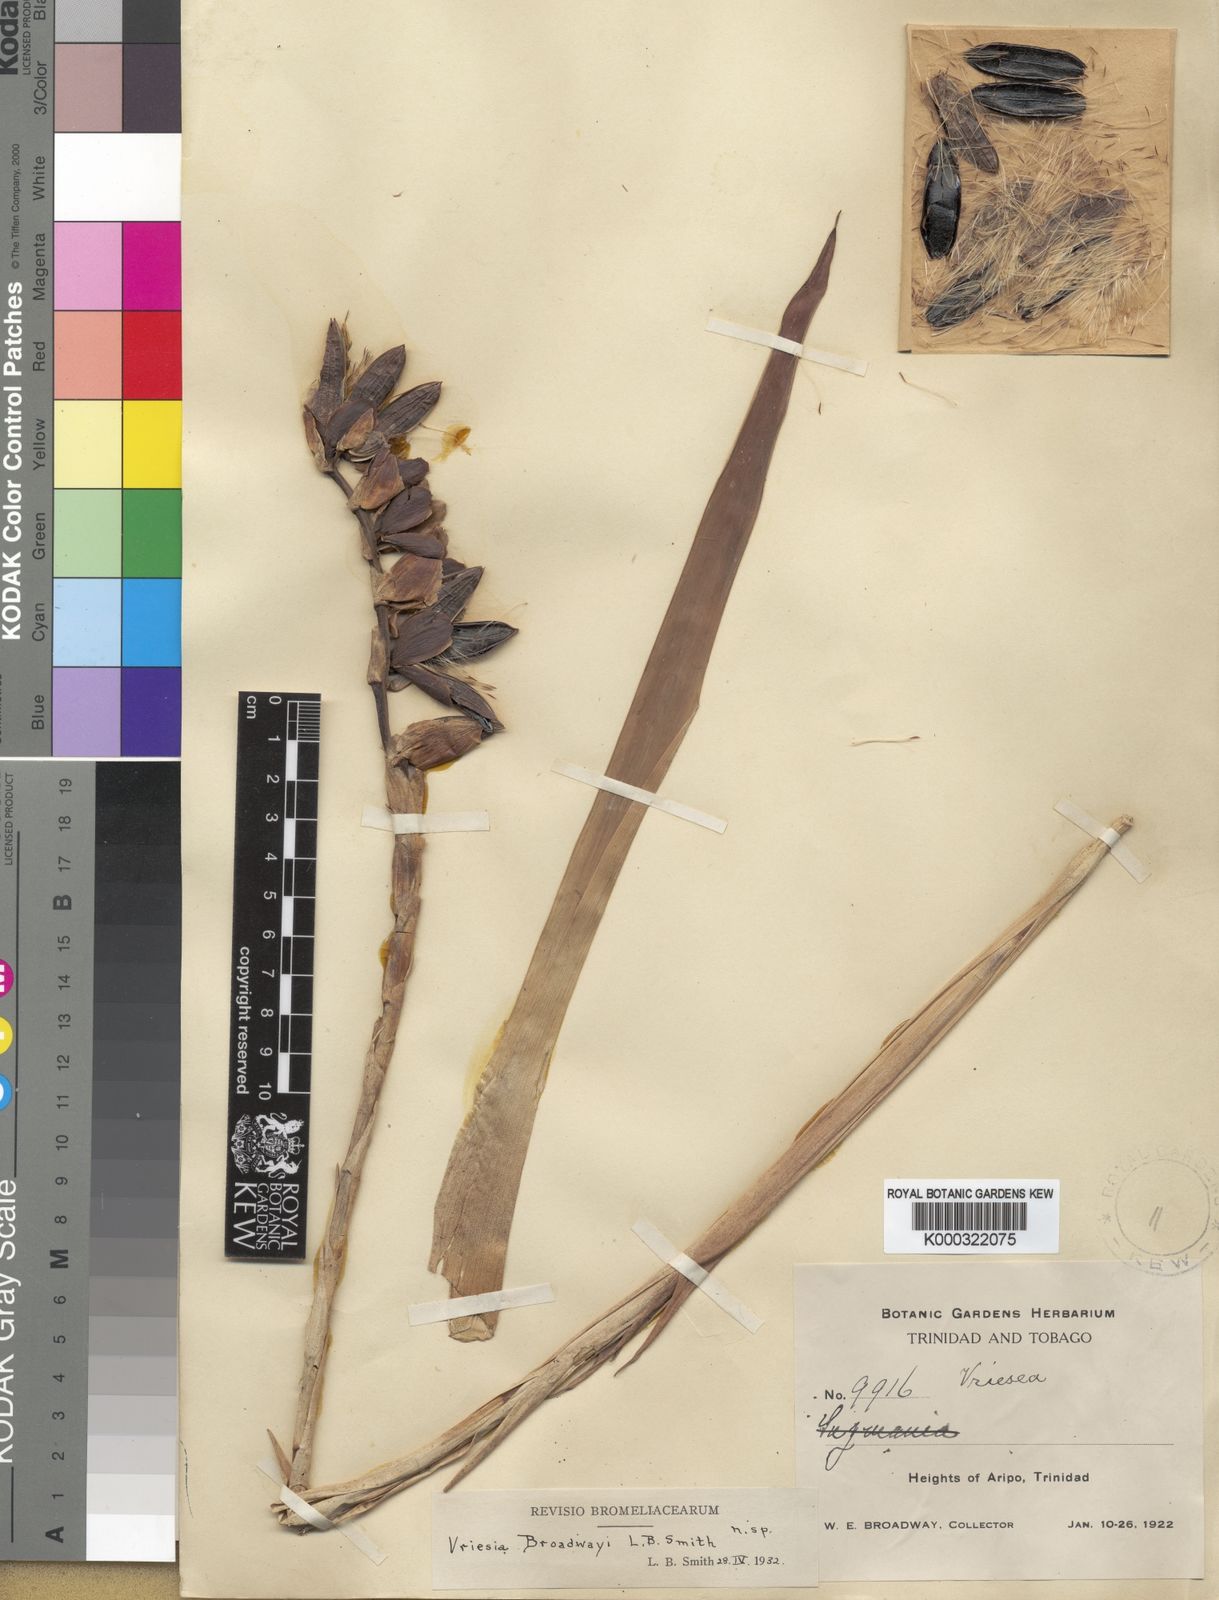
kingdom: Plantae
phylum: Tracheophyta
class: Liliopsida
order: Poales
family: Bromeliaceae
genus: Werauhia
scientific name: Werauhia broadwayi
